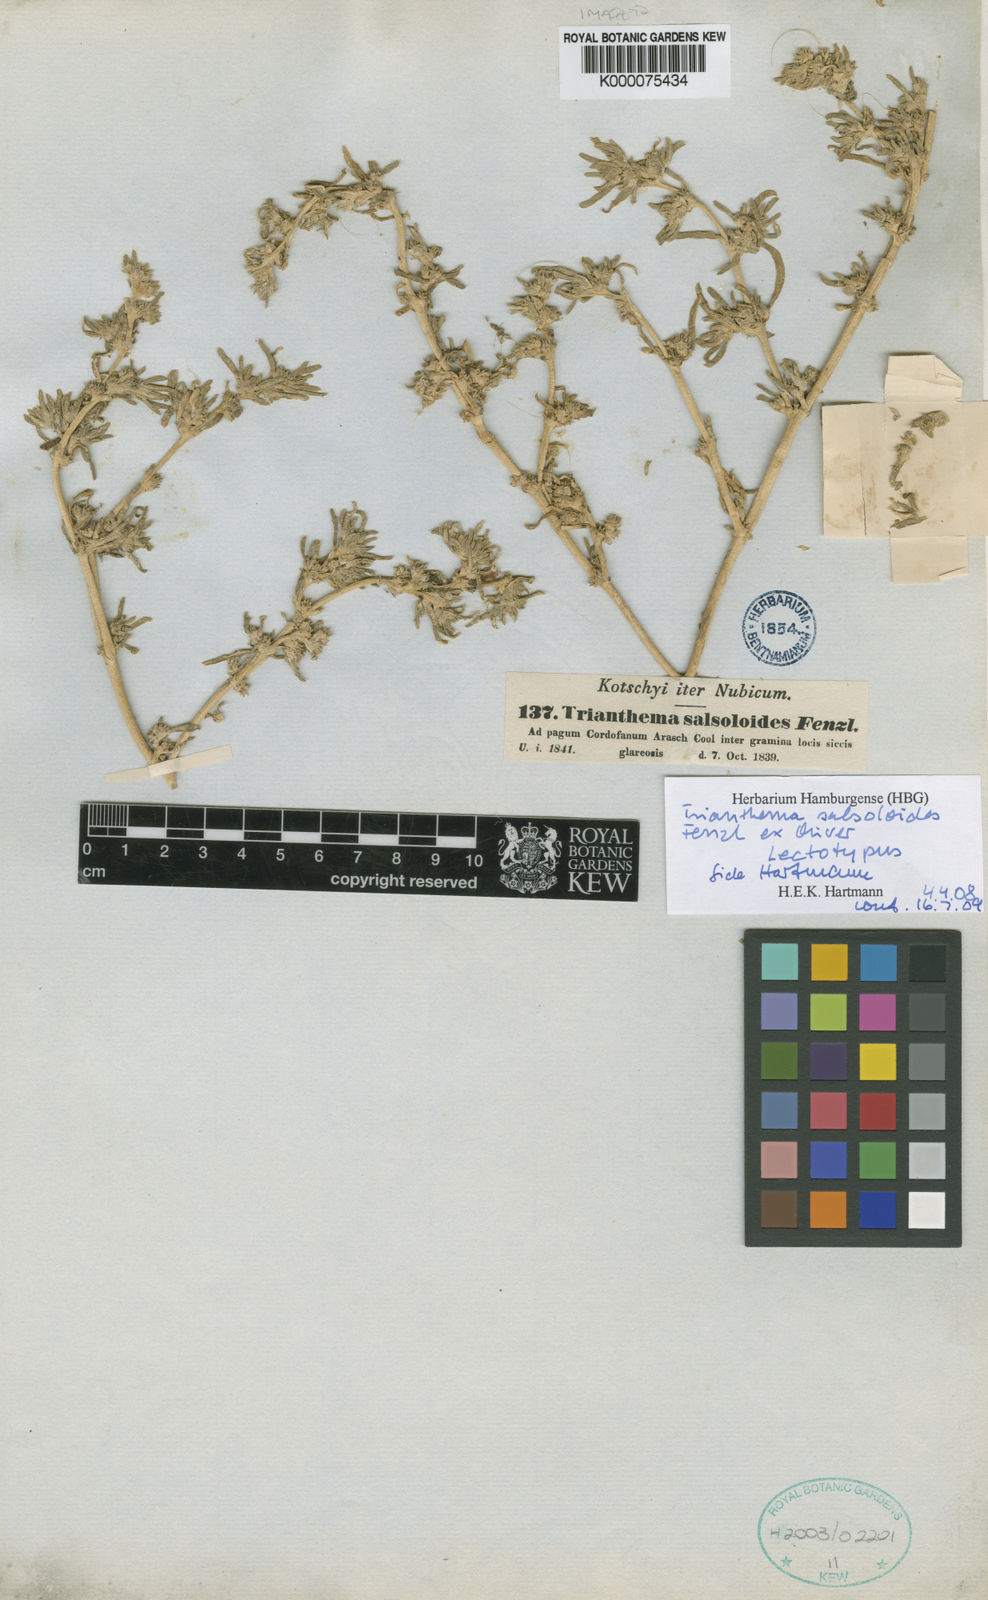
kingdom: Plantae
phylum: Tracheophyta
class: Magnoliopsida
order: Caryophyllales
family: Aizoaceae
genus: Trianthema
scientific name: Trianthema
